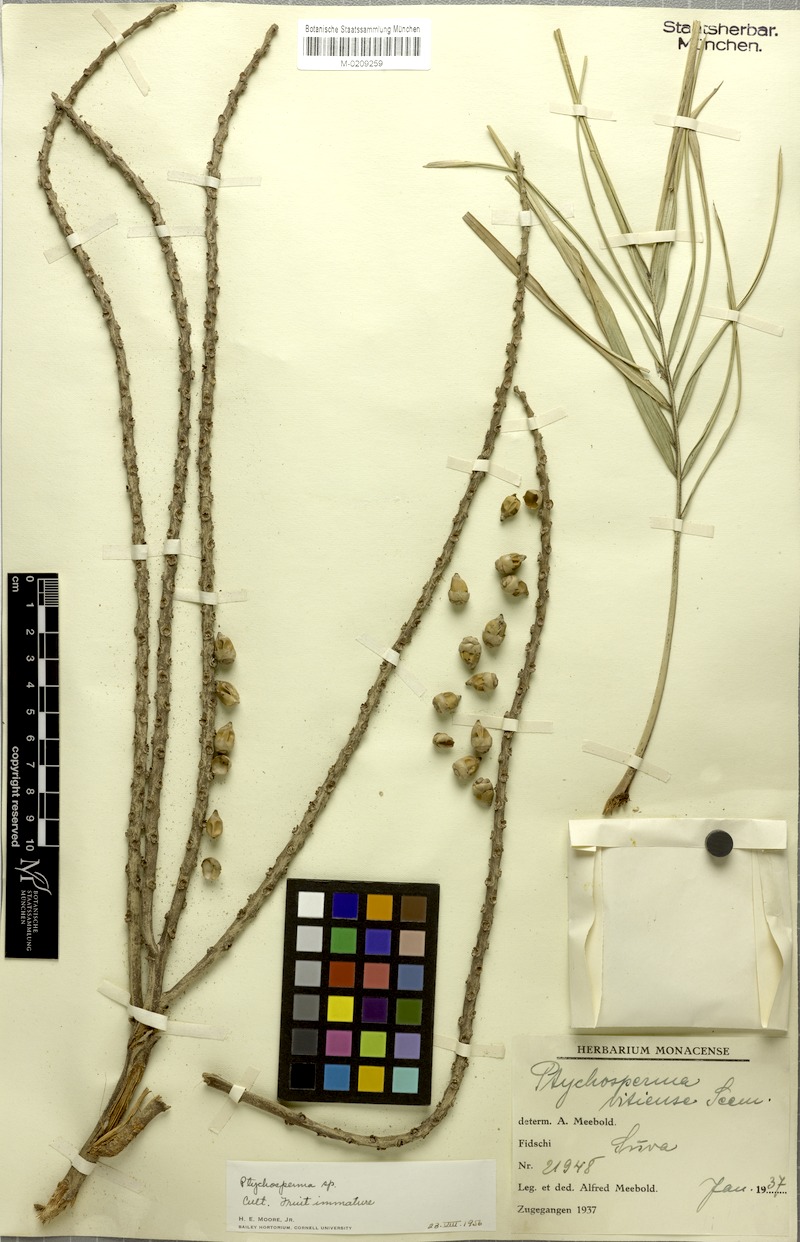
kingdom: Plantae
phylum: Tracheophyta
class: Liliopsida
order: Arecales
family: Arecaceae
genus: Veitchia
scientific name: Veitchia vitiensis
